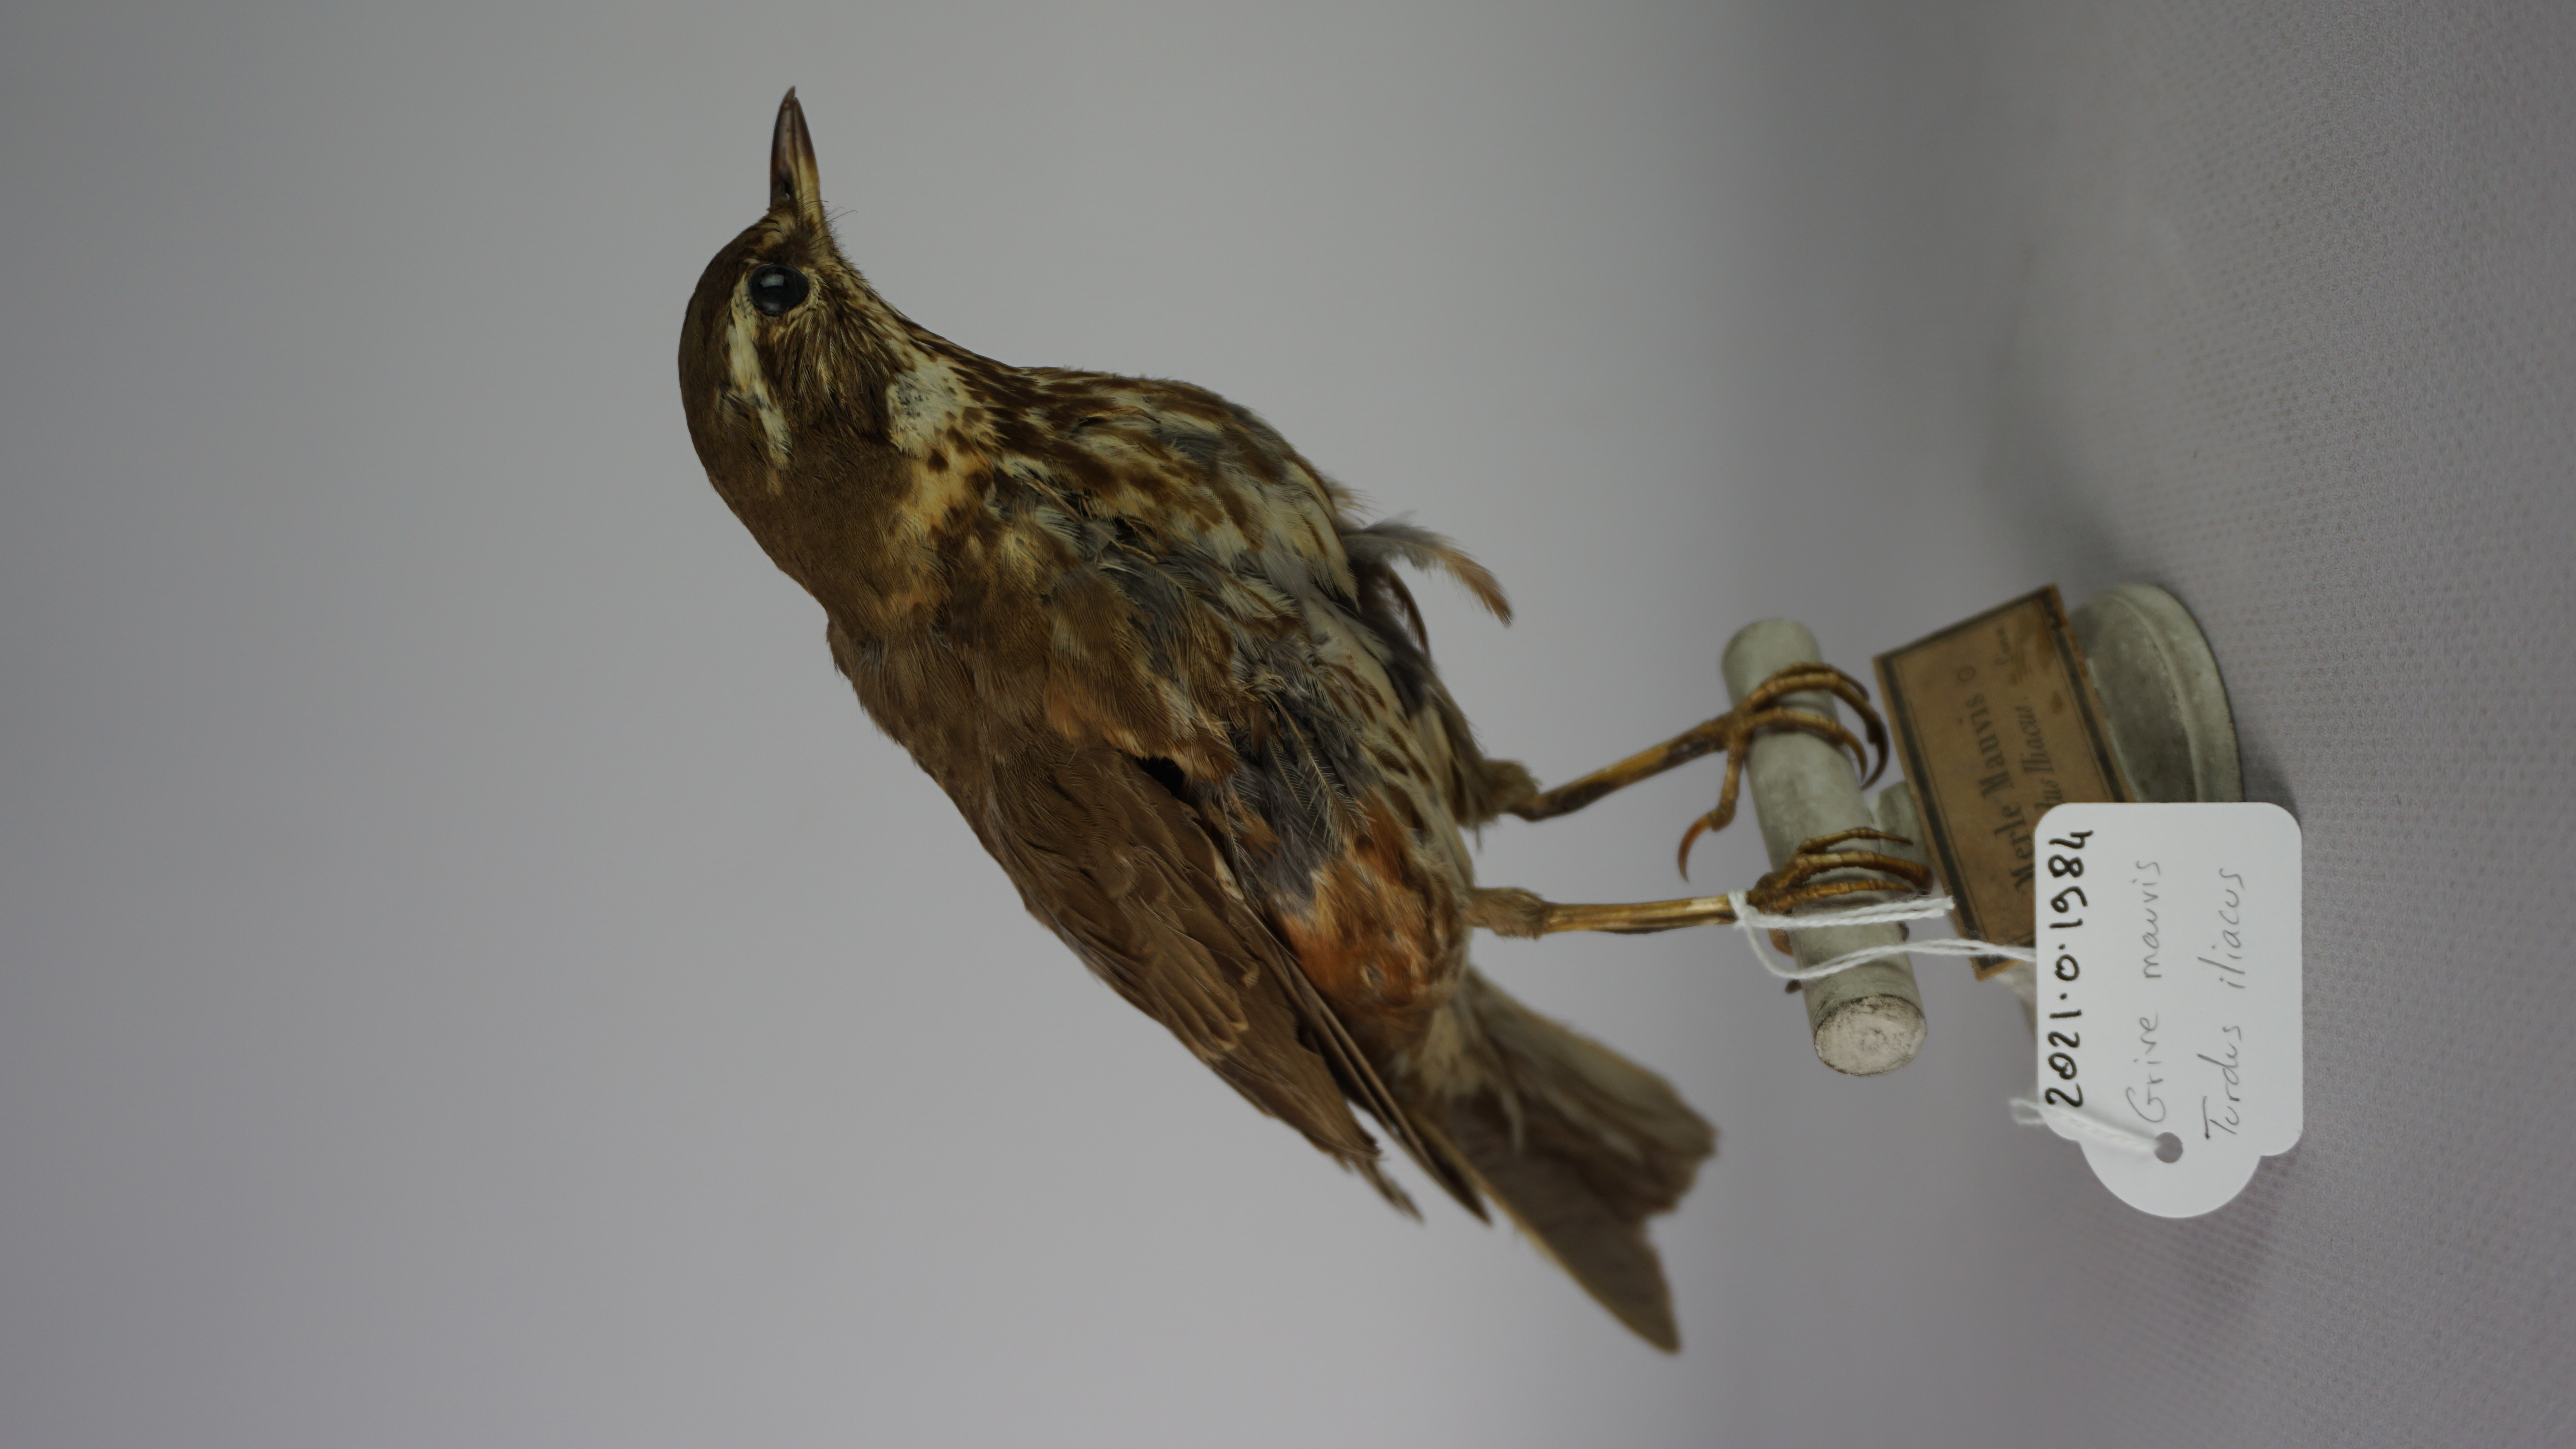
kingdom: Animalia
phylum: Chordata
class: Aves
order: Passeriformes
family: Turdidae
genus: Turdus
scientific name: Turdus iliacus
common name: Redwing
